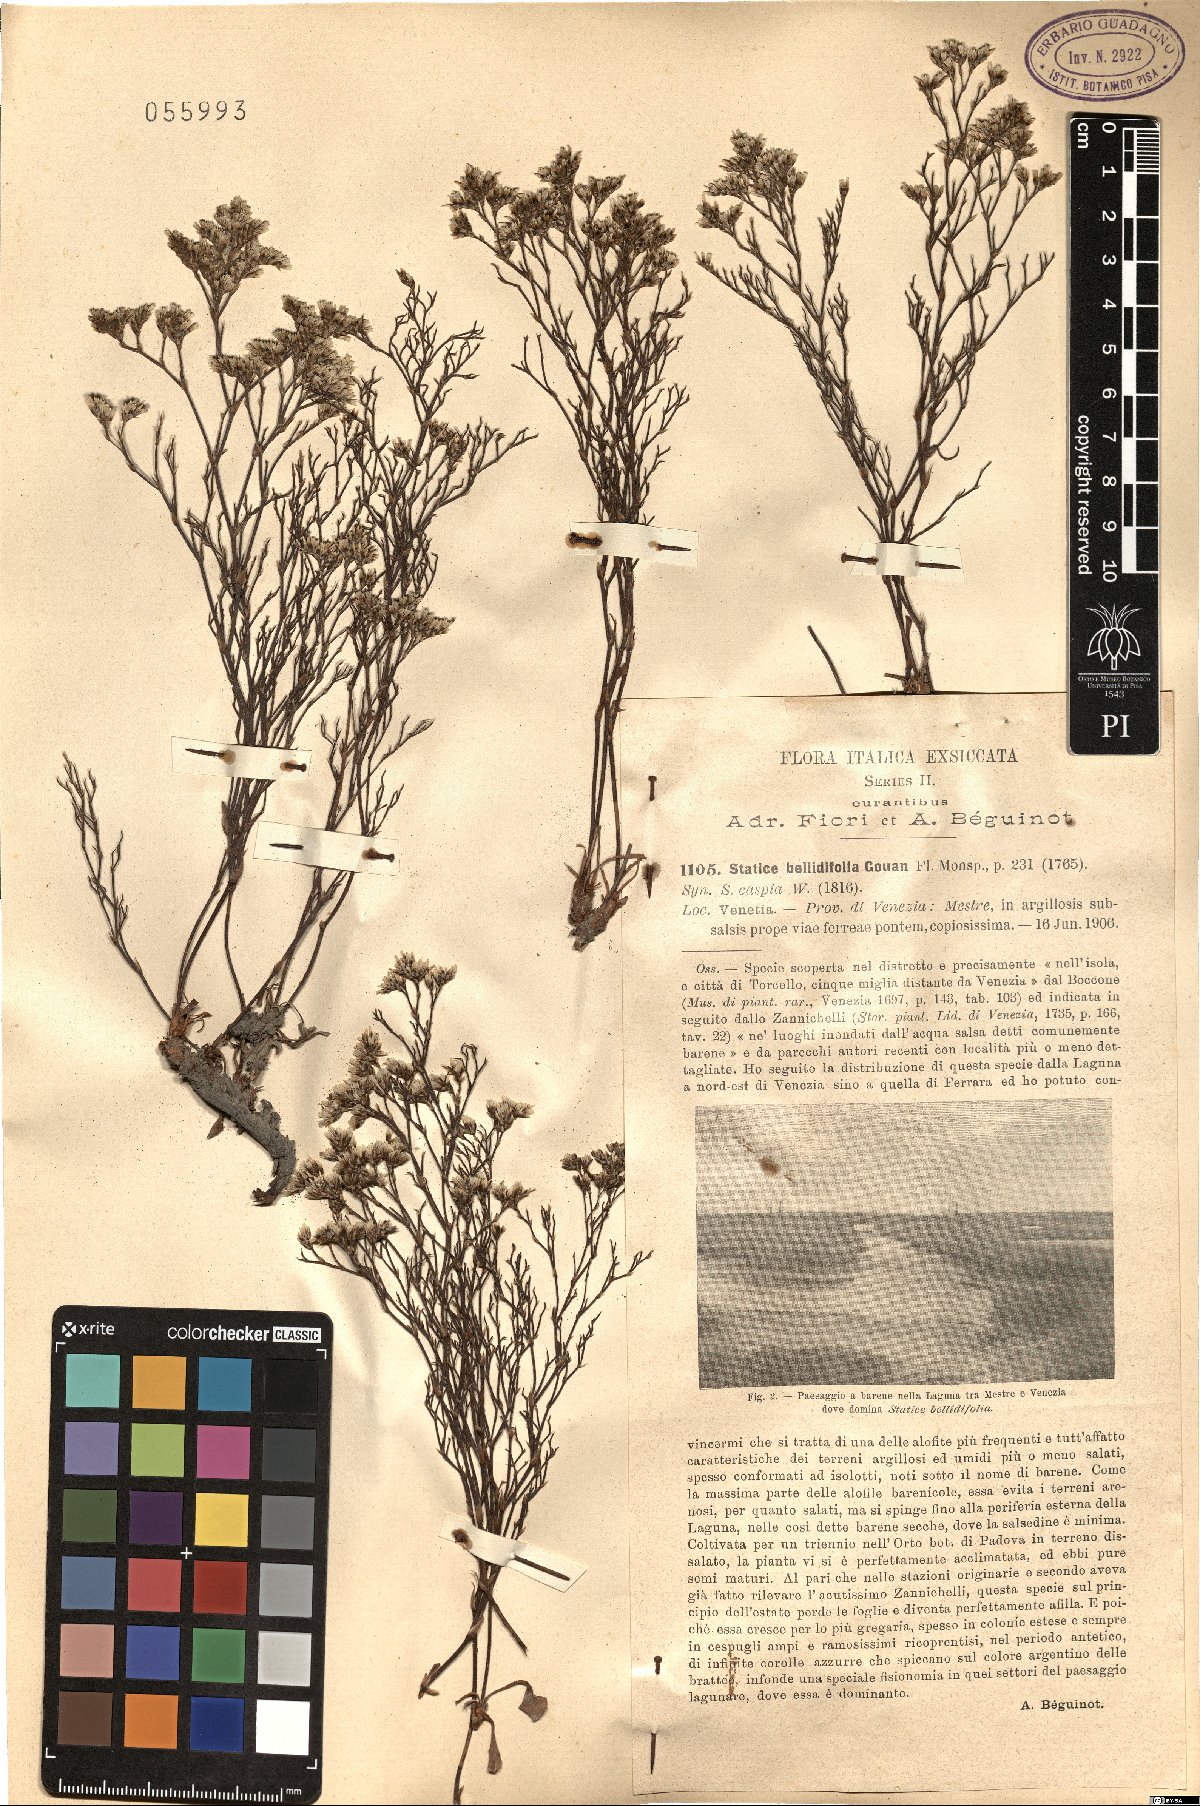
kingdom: Plantae
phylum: Tracheophyta
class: Magnoliopsida
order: Caryophyllales
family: Plumbaginaceae
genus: Limonium
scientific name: Limonium bellidifolium
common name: Matted sea-lavender
